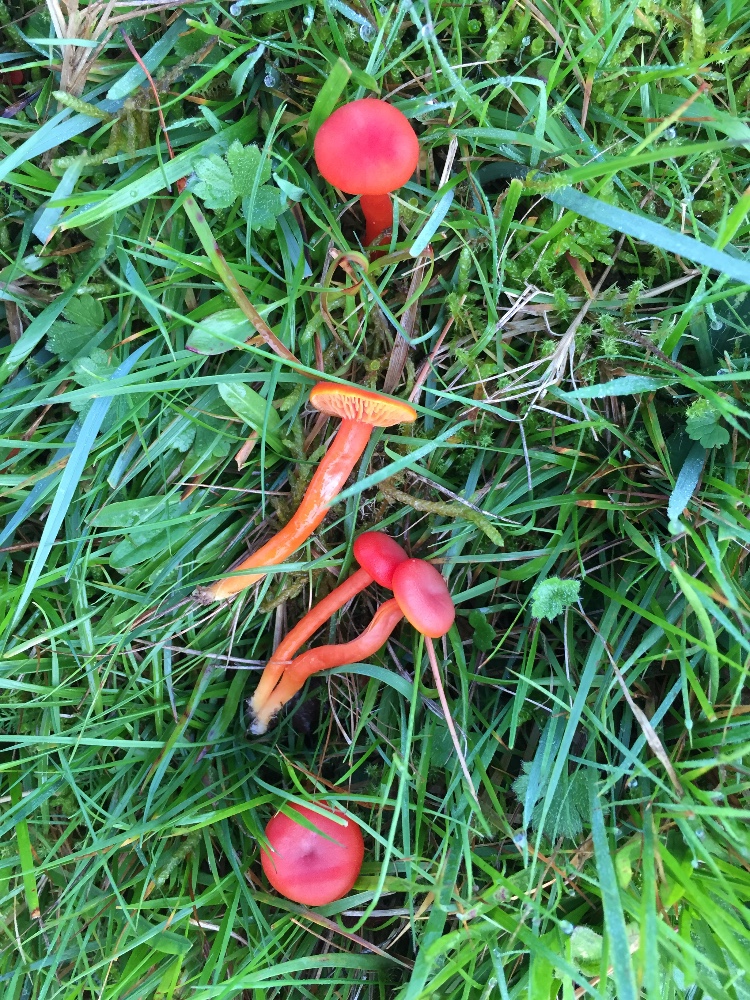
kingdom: Fungi
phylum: Basidiomycota
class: Agaricomycetes
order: Agaricales
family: Hygrophoraceae
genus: Hygrocybe
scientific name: Hygrocybe miniata
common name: mønje-vokshat
